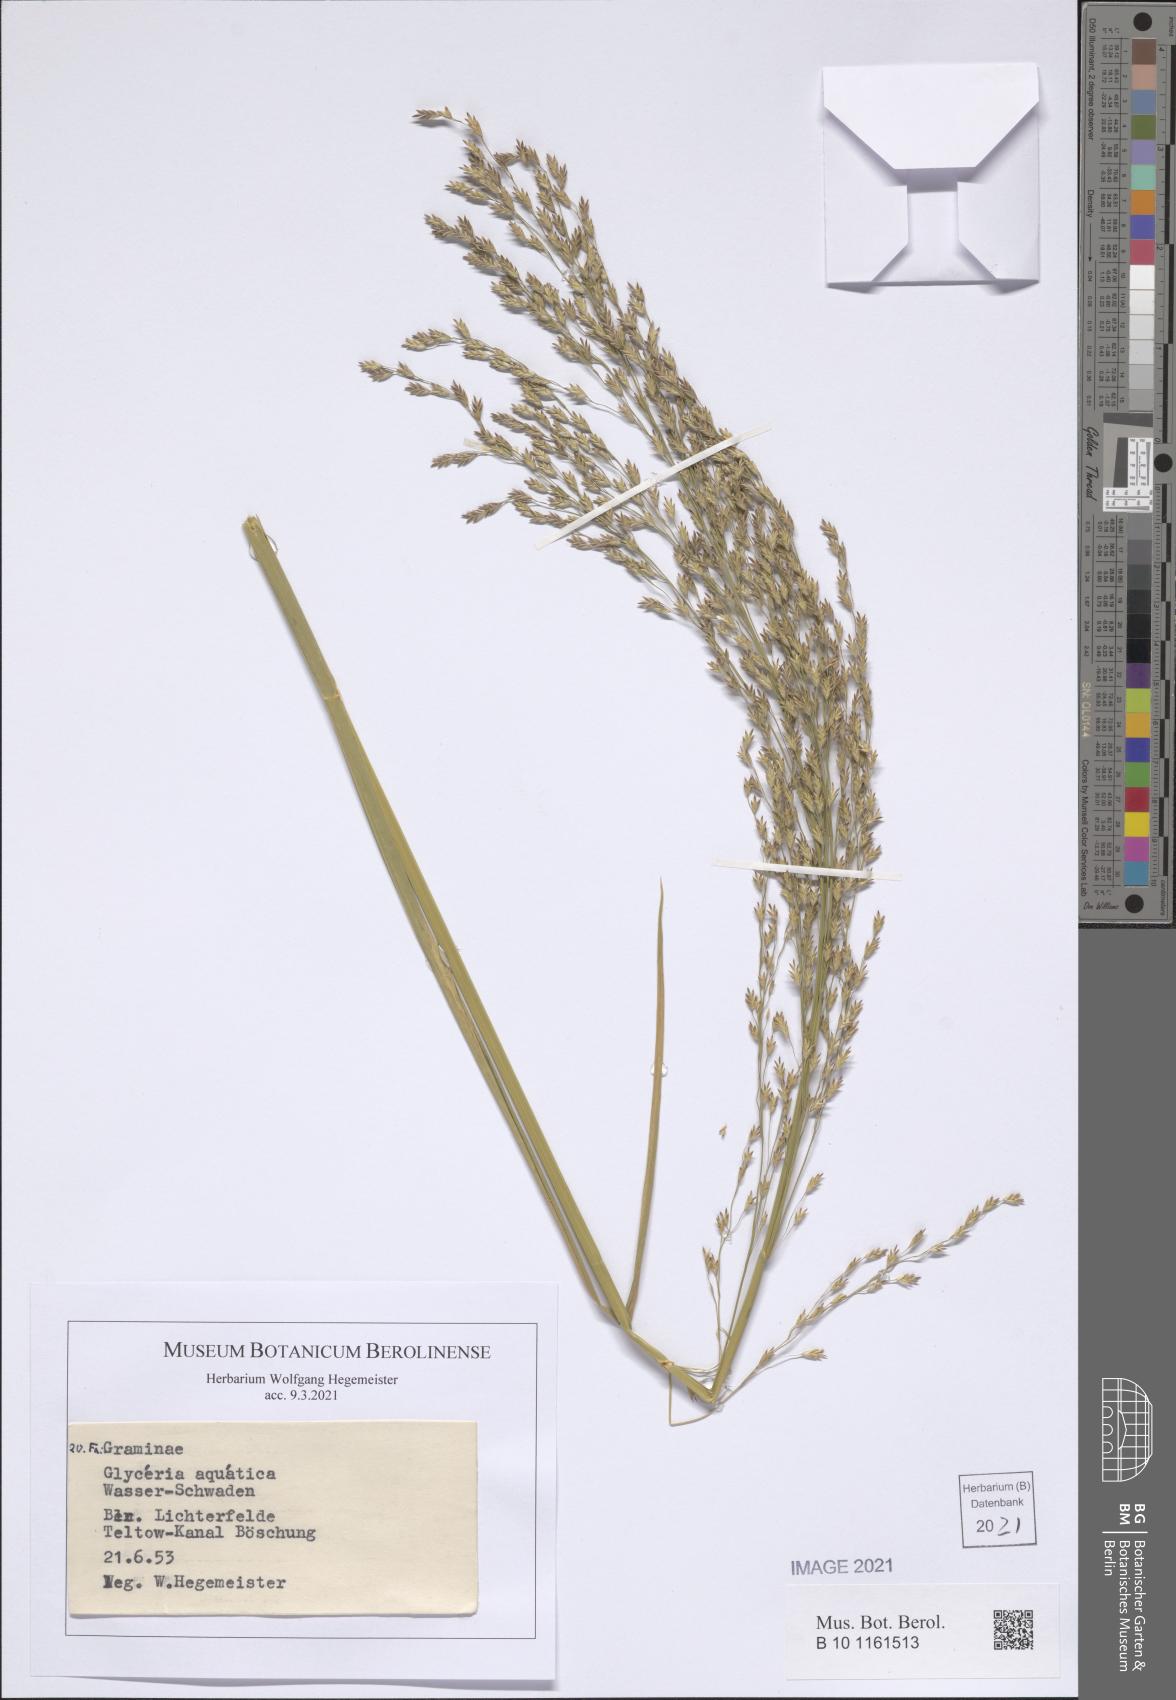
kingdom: Plantae
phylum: Tracheophyta
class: Liliopsida
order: Poales
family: Poaceae
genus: Catabrosa
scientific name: Catabrosa aquatica
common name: Whorl-grass
